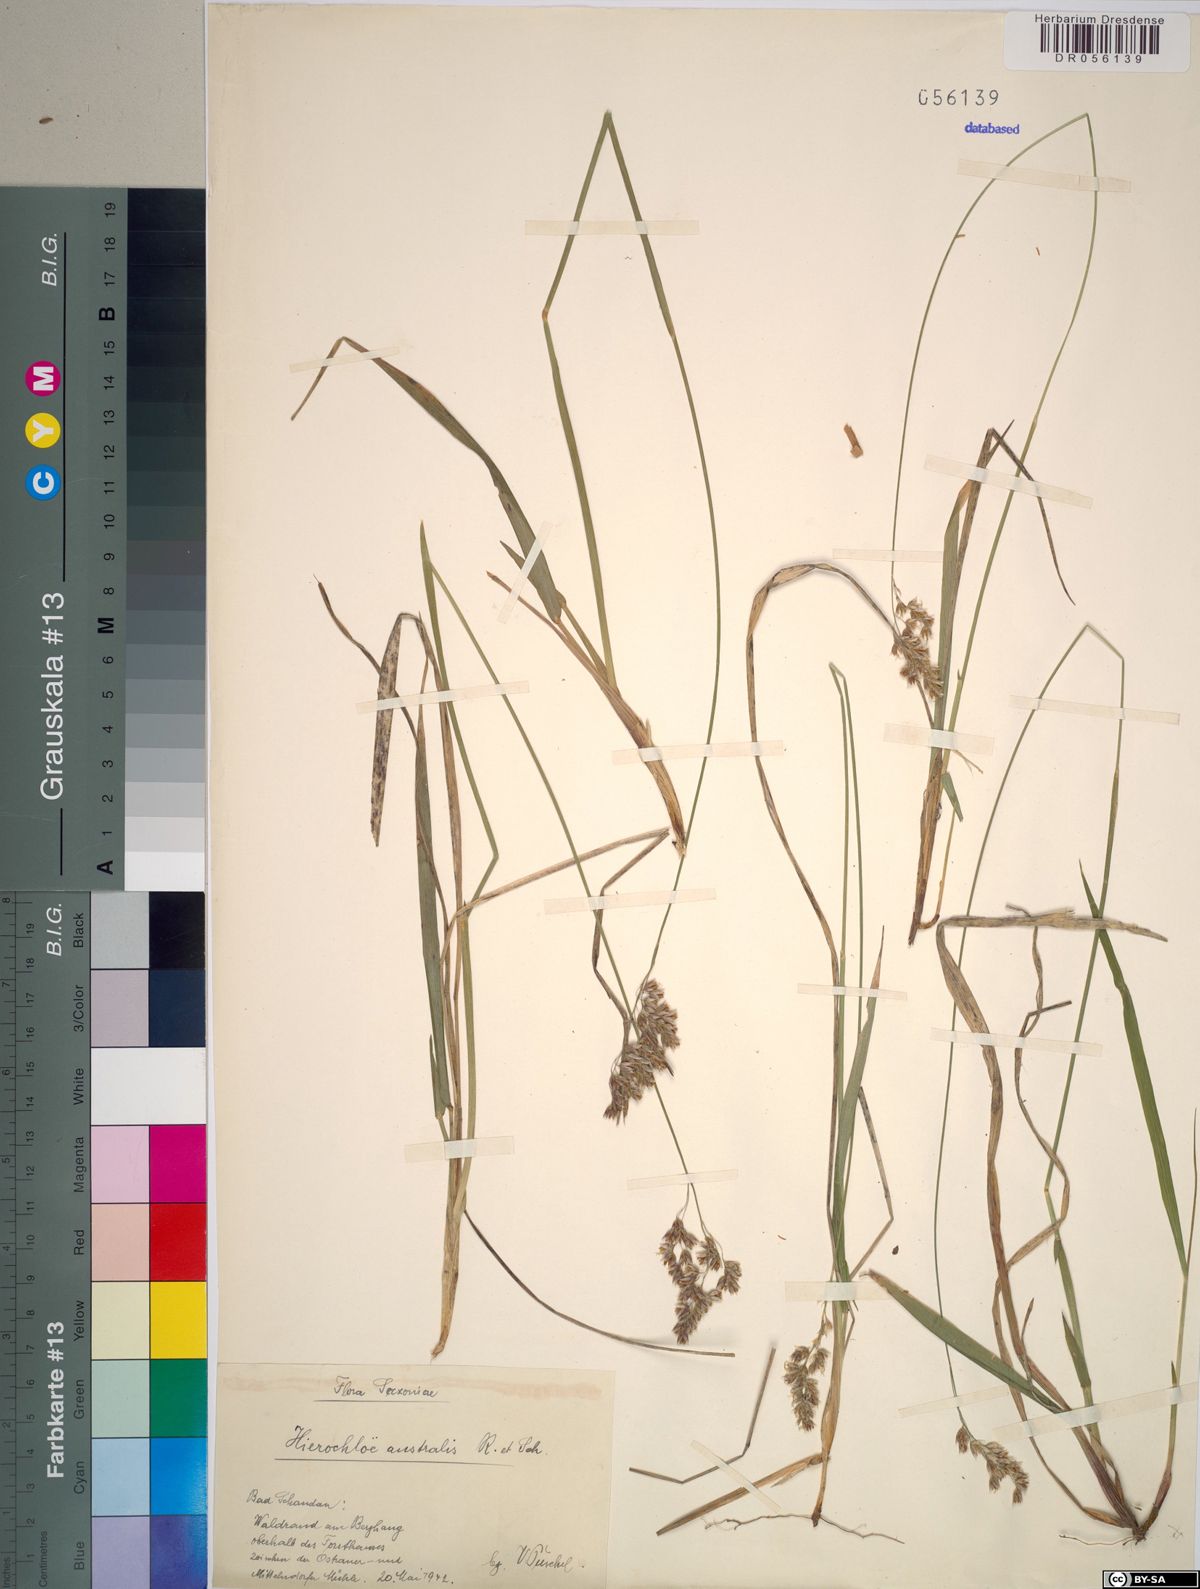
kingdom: Plantae
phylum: Tracheophyta
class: Liliopsida
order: Poales
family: Poaceae
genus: Anthoxanthum
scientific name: Anthoxanthum australe
